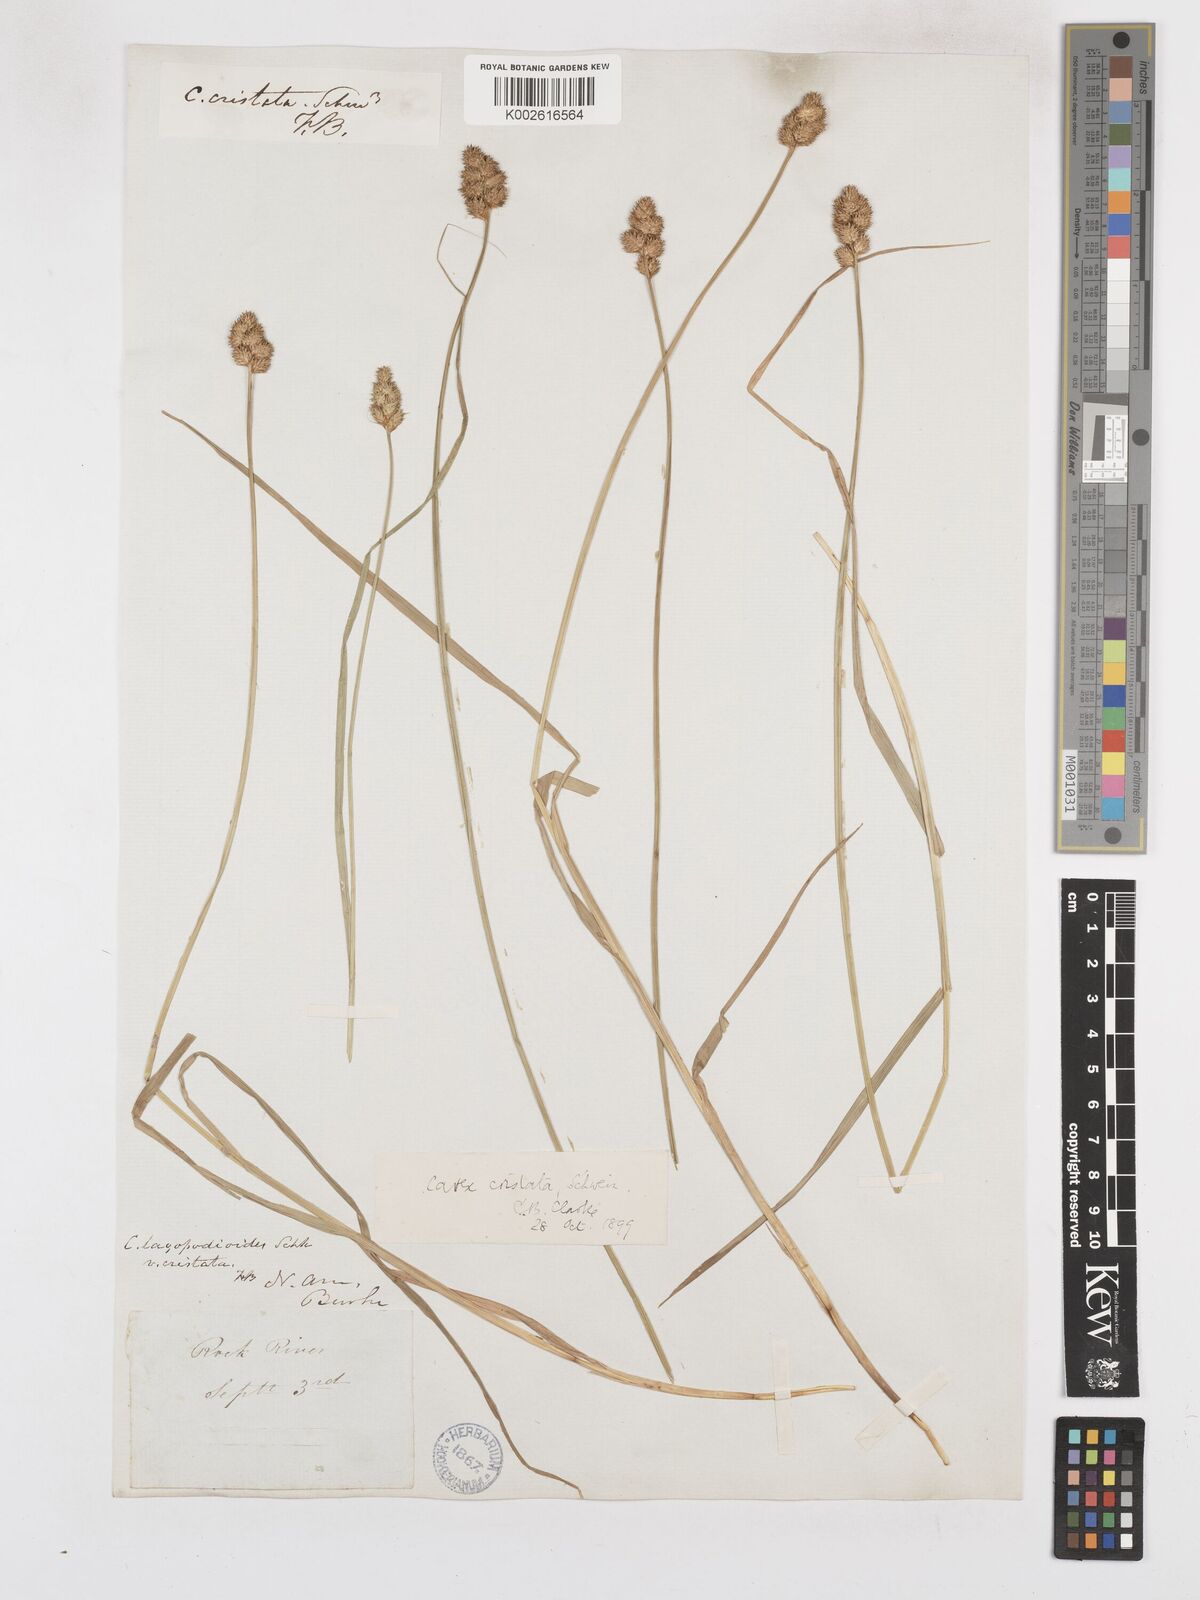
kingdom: Plantae
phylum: Tracheophyta
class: Liliopsida
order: Poales
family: Cyperaceae
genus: Carex
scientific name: Carex cristatella
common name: Crested oval sedge
